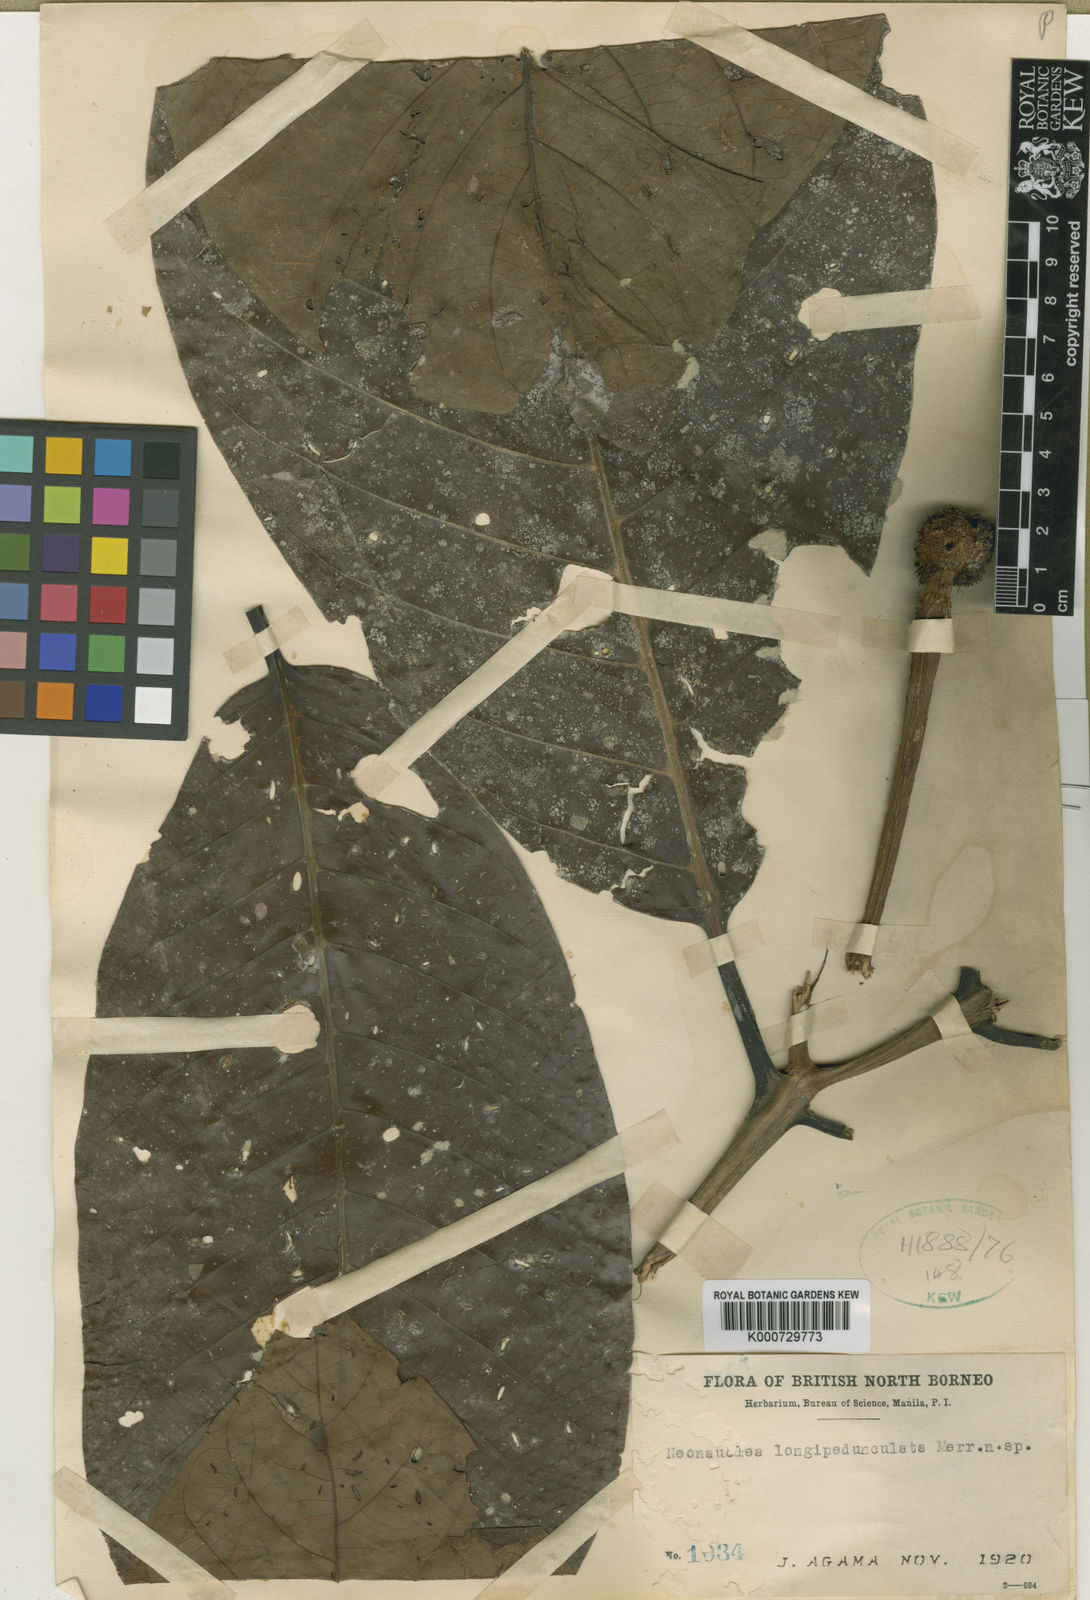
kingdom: Plantae
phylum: Tracheophyta
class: Magnoliopsida
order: Gentianales
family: Rubiaceae
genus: Neonauclea
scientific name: Neonauclea longipedunculata
